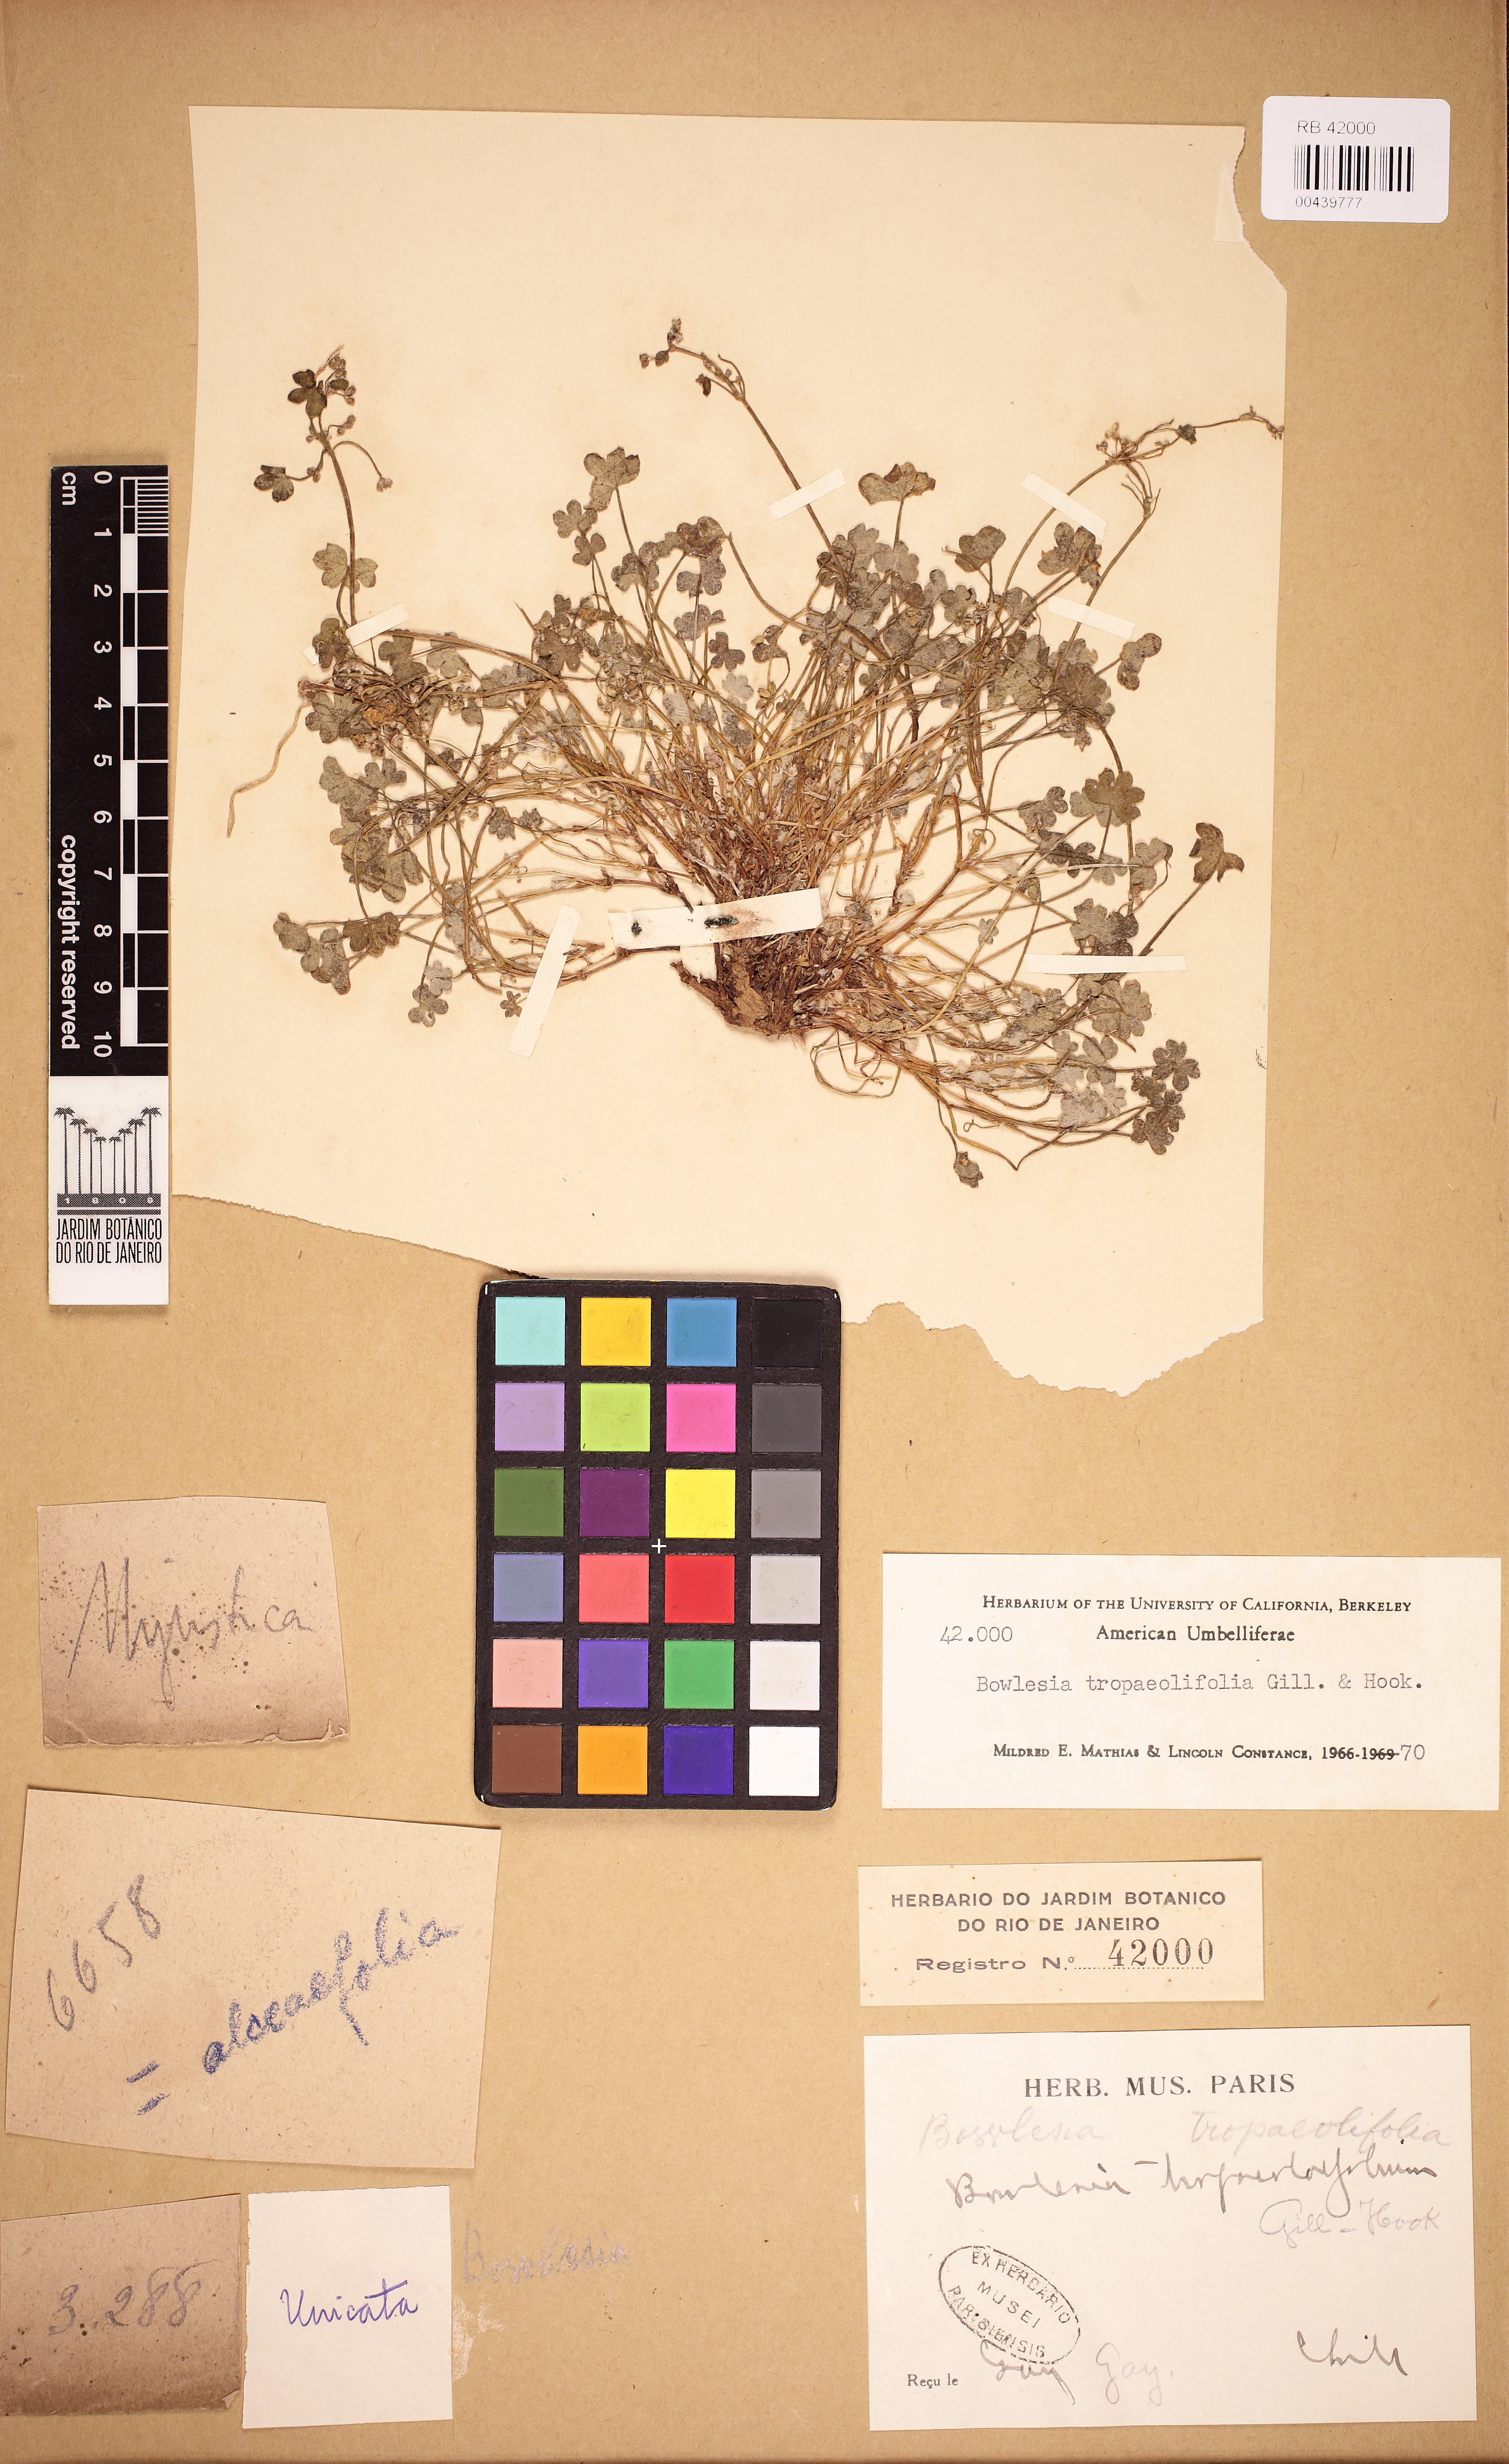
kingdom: Plantae
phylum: Tracheophyta
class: Magnoliopsida
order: Apiales
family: Apiaceae
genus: Bowlesia
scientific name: Bowlesia tropaeolifolia
